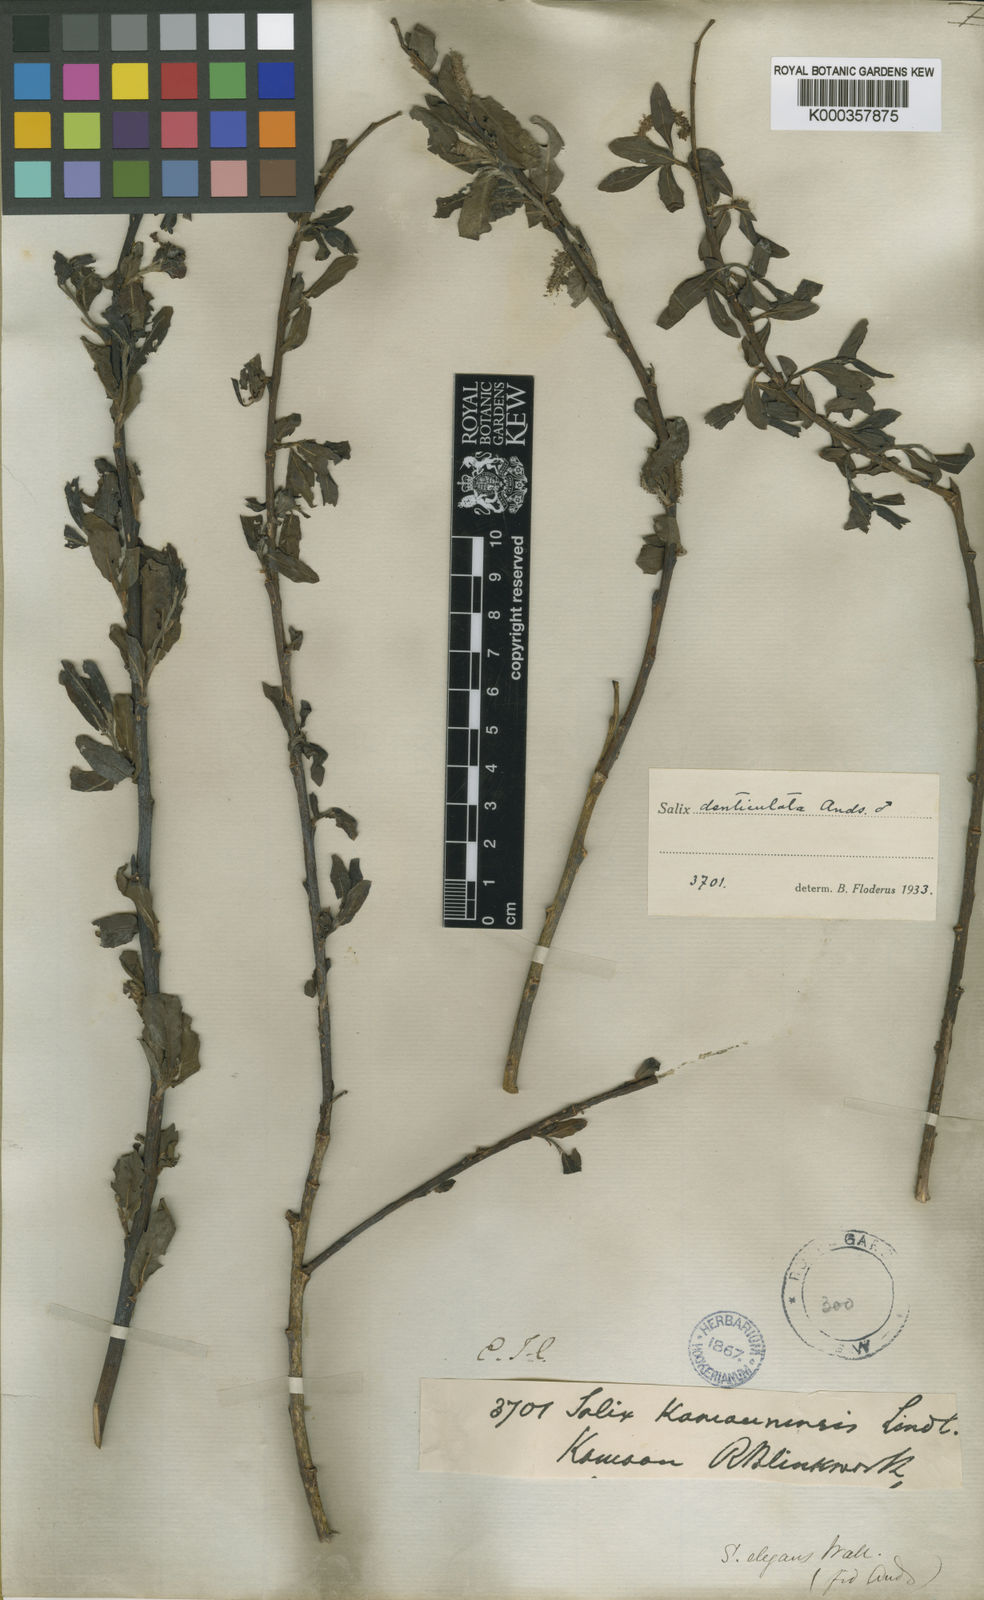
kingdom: Plantae
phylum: Tracheophyta
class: Magnoliopsida
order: Malpighiales
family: Salicaceae
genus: Salix
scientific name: Salix denticulata
